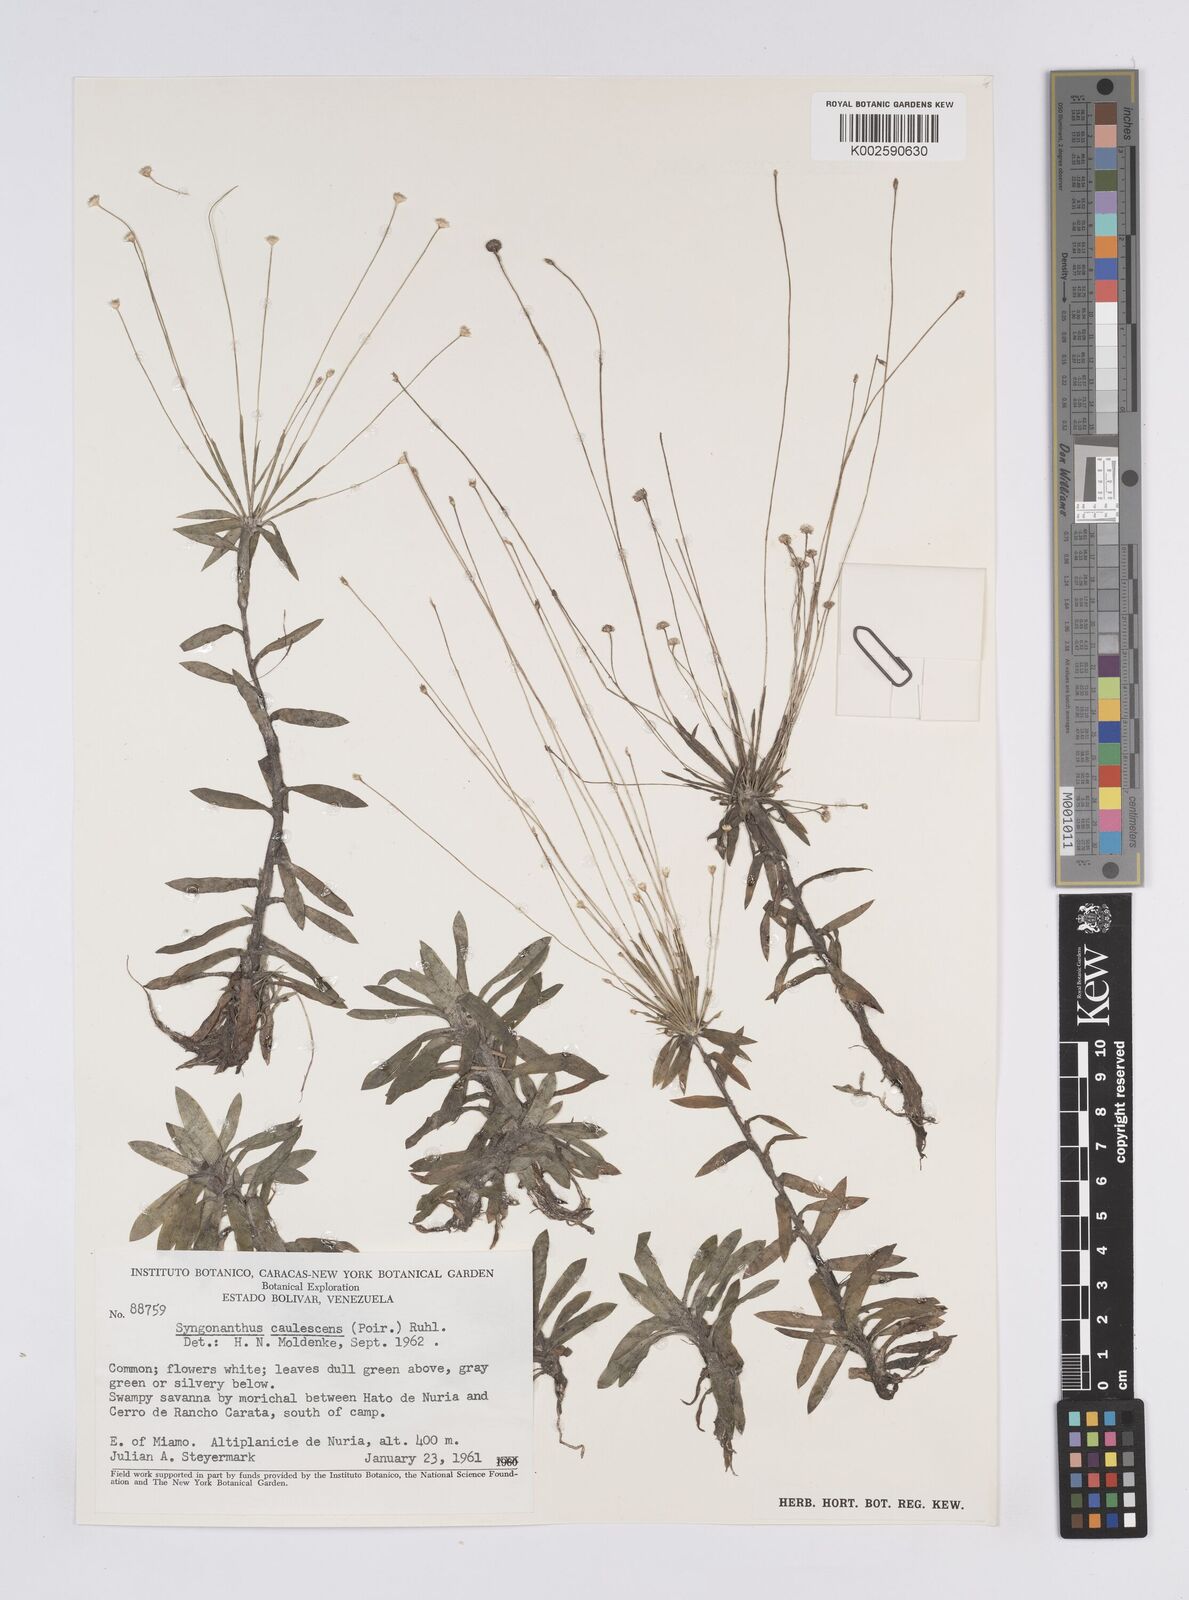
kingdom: Plantae
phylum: Tracheophyta
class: Liliopsida
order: Poales
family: Eriocaulaceae
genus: Syngonanthus
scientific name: Syngonanthus caulescens
